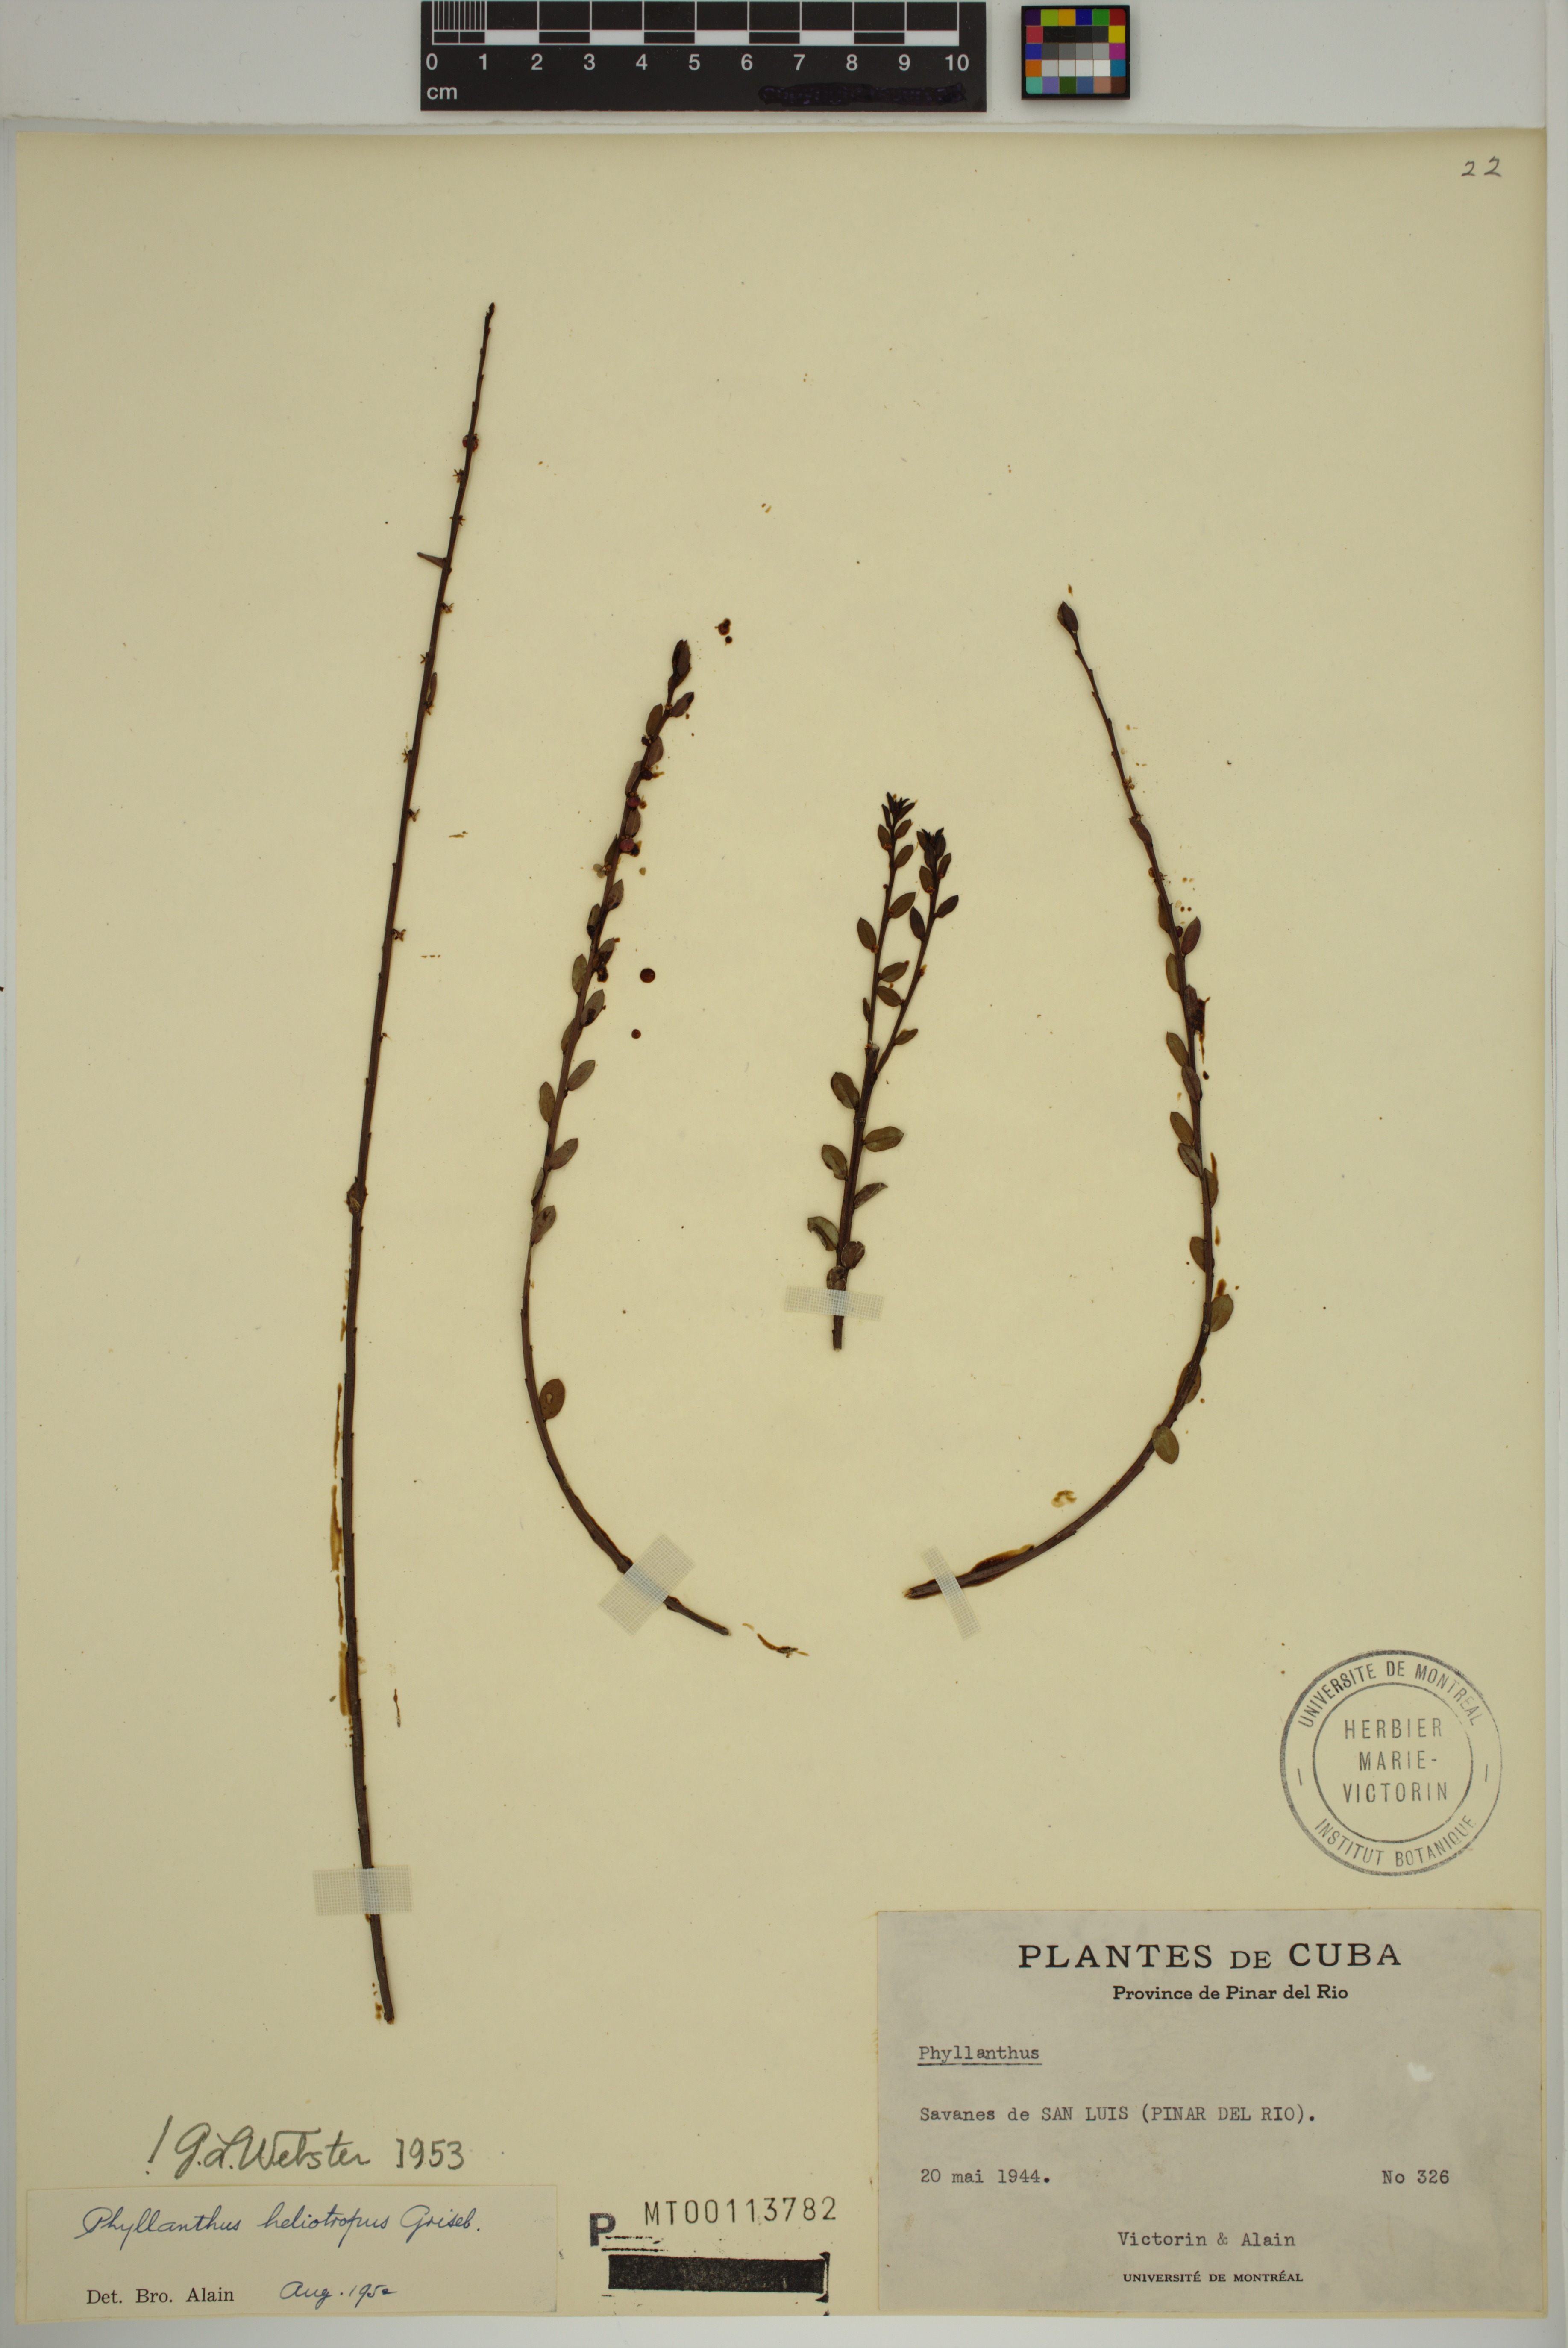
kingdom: Plantae
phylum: Tracheophyta
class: Magnoliopsida
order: Malpighiales
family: Phyllanthaceae
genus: Phyllanthus
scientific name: Phyllanthus heliotropus
